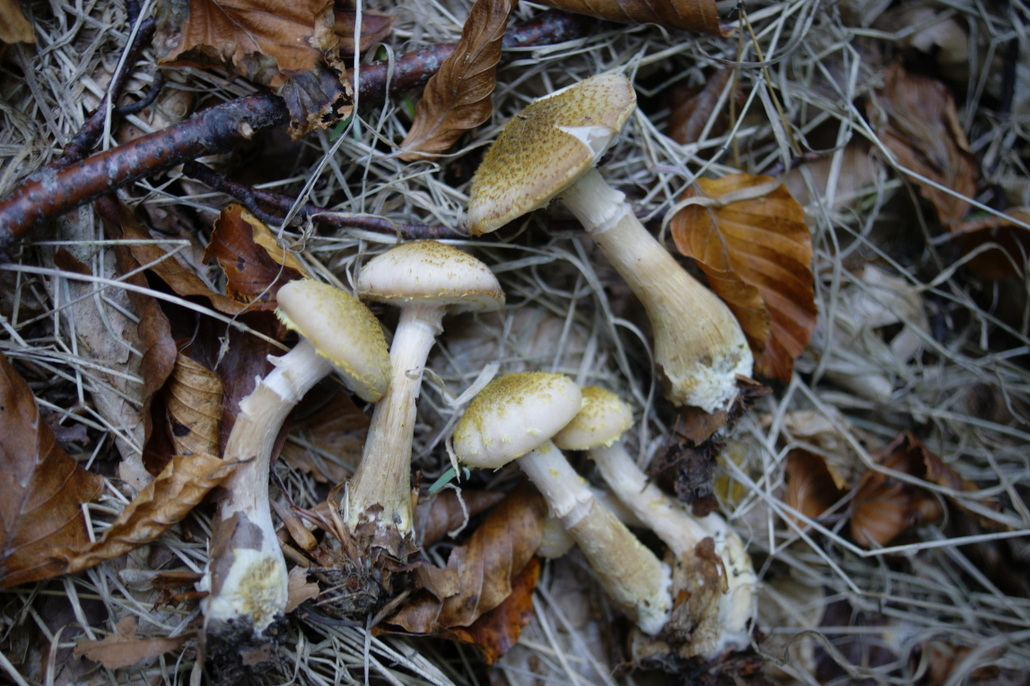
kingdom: Fungi
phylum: Basidiomycota
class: Agaricomycetes
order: Agaricales
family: Physalacriaceae
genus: Armillaria
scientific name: Armillaria lutea
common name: køllestokket honningsvamp
